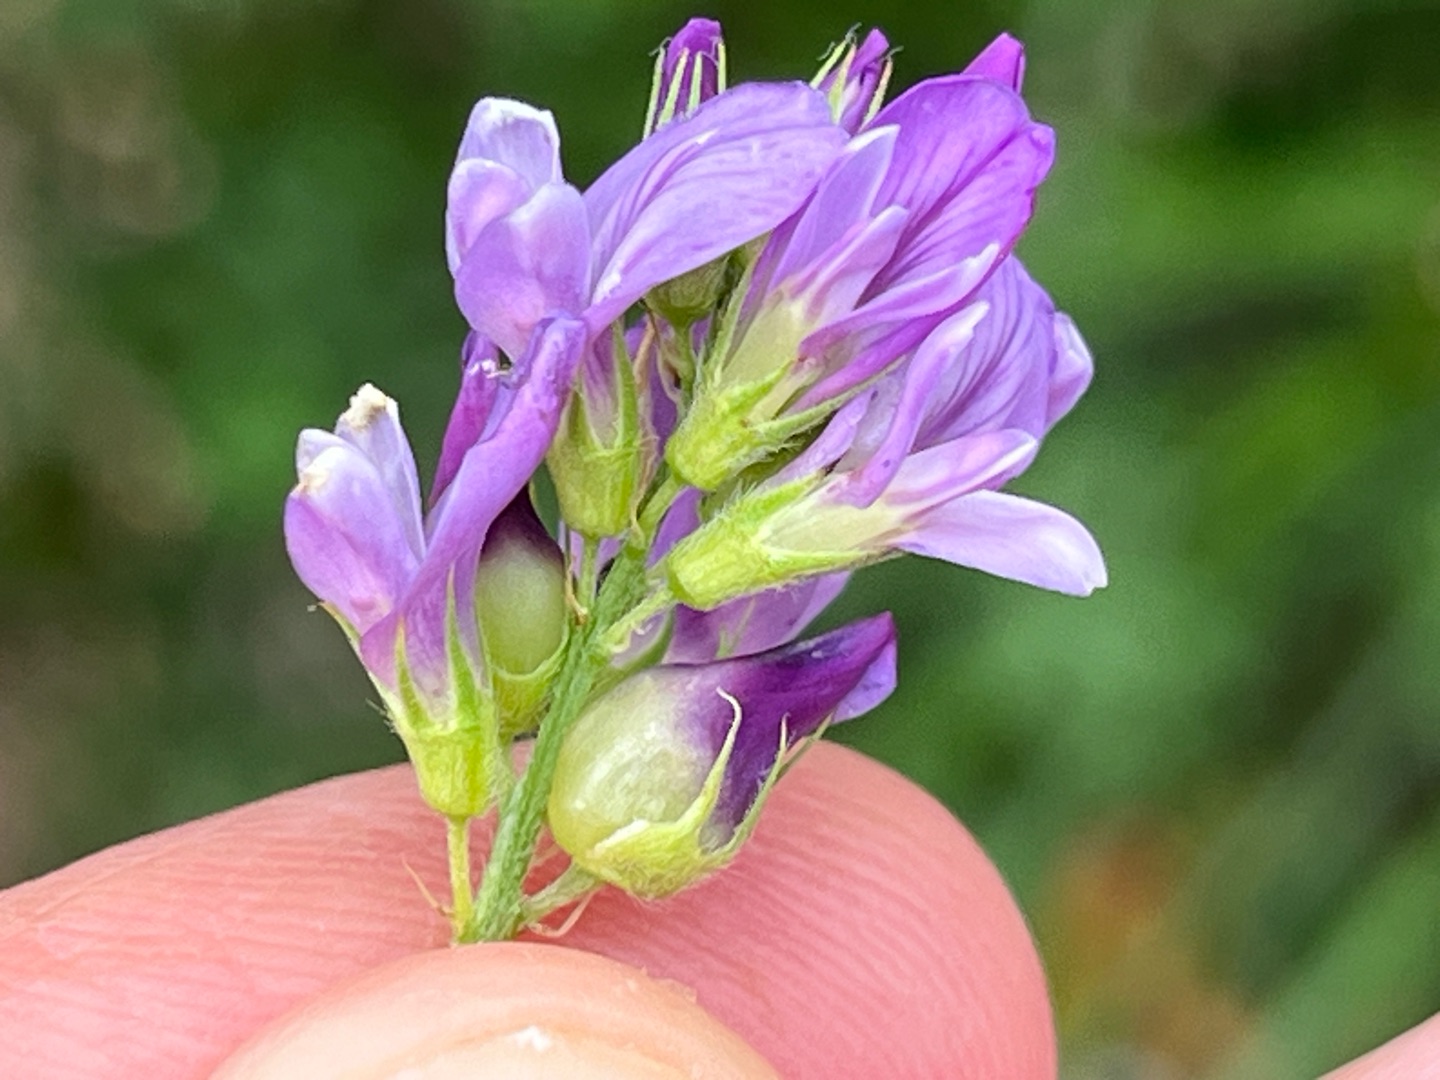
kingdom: Animalia
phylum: Arthropoda
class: Insecta
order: Diptera
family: Cecidomyiidae
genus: Contarinia
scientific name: Contarinia medicaginis
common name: Lucerneblomstgalmyg
